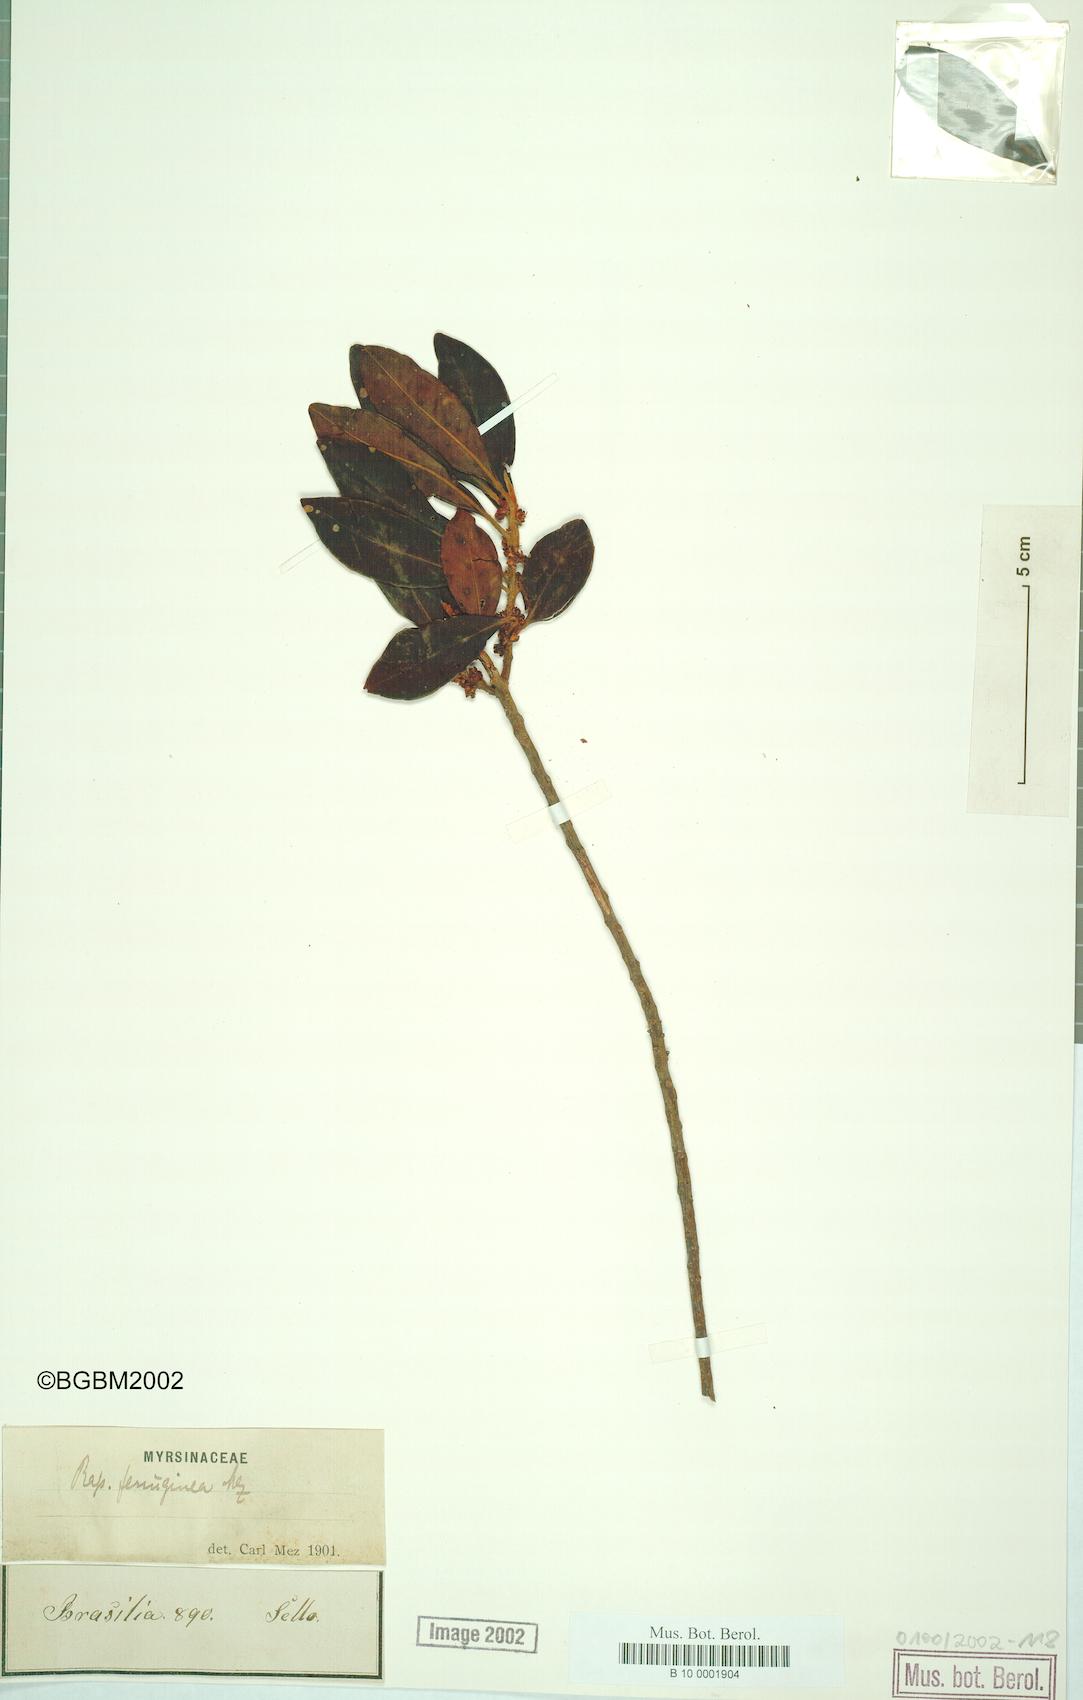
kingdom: Plantae
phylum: Tracheophyta
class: Magnoliopsida
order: Ericales
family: Primulaceae
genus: Myrsine
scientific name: Myrsine coriacea
